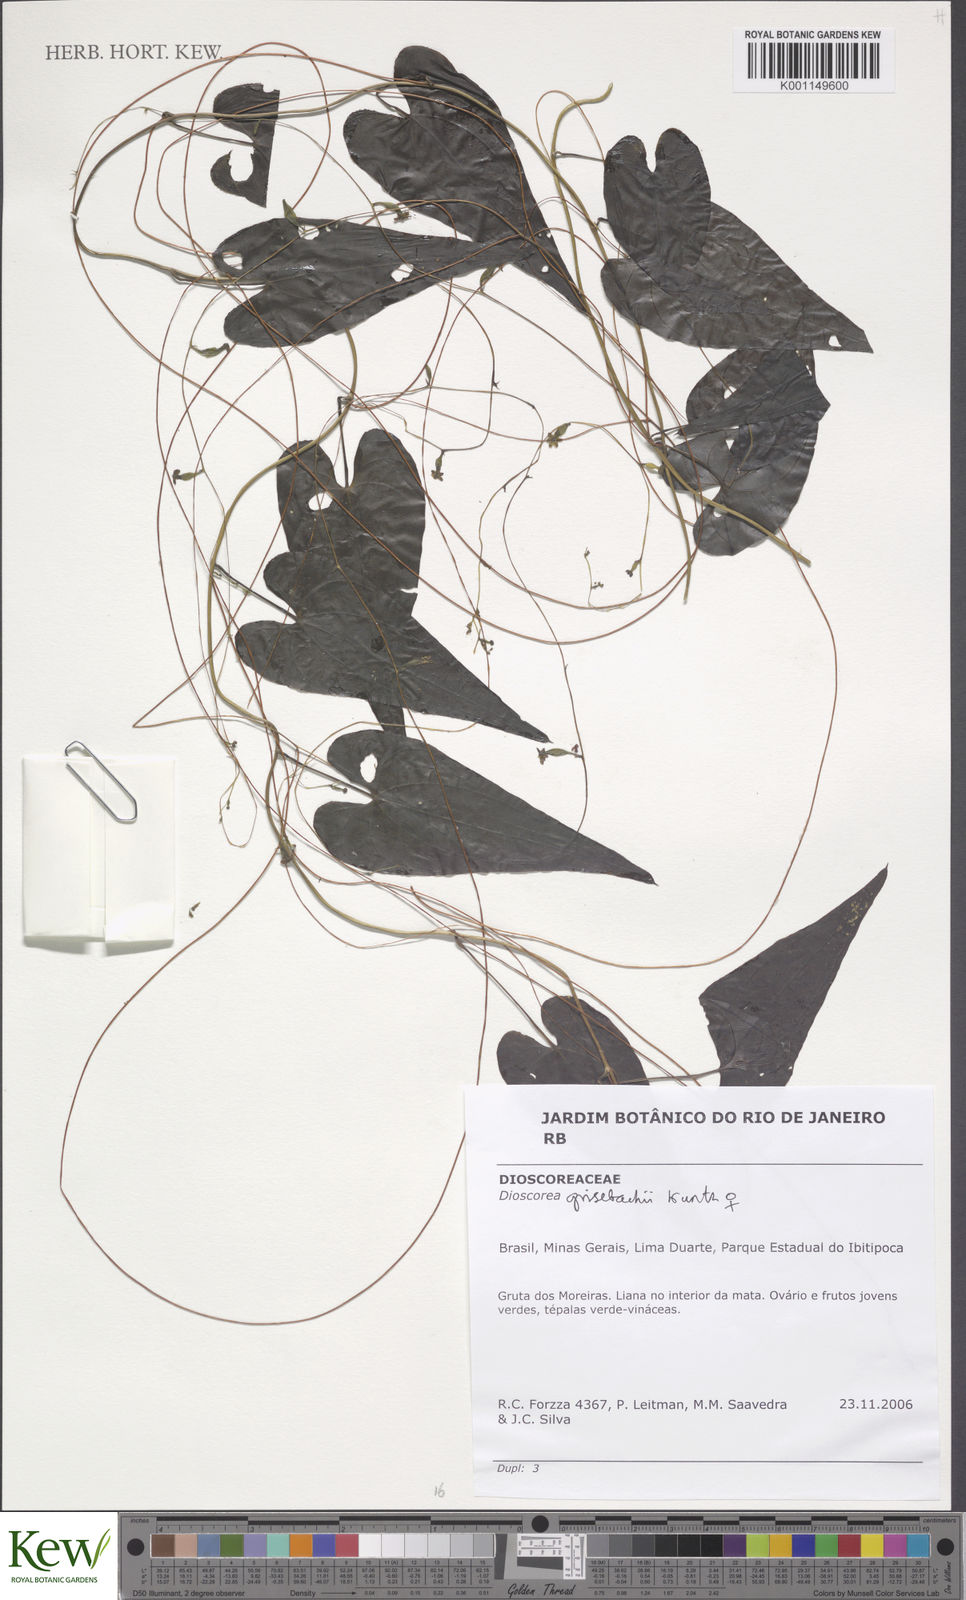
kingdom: Plantae
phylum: Tracheophyta
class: Liliopsida
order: Dioscoreales
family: Dioscoreaceae
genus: Dioscorea
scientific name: Dioscorea grisebachii
